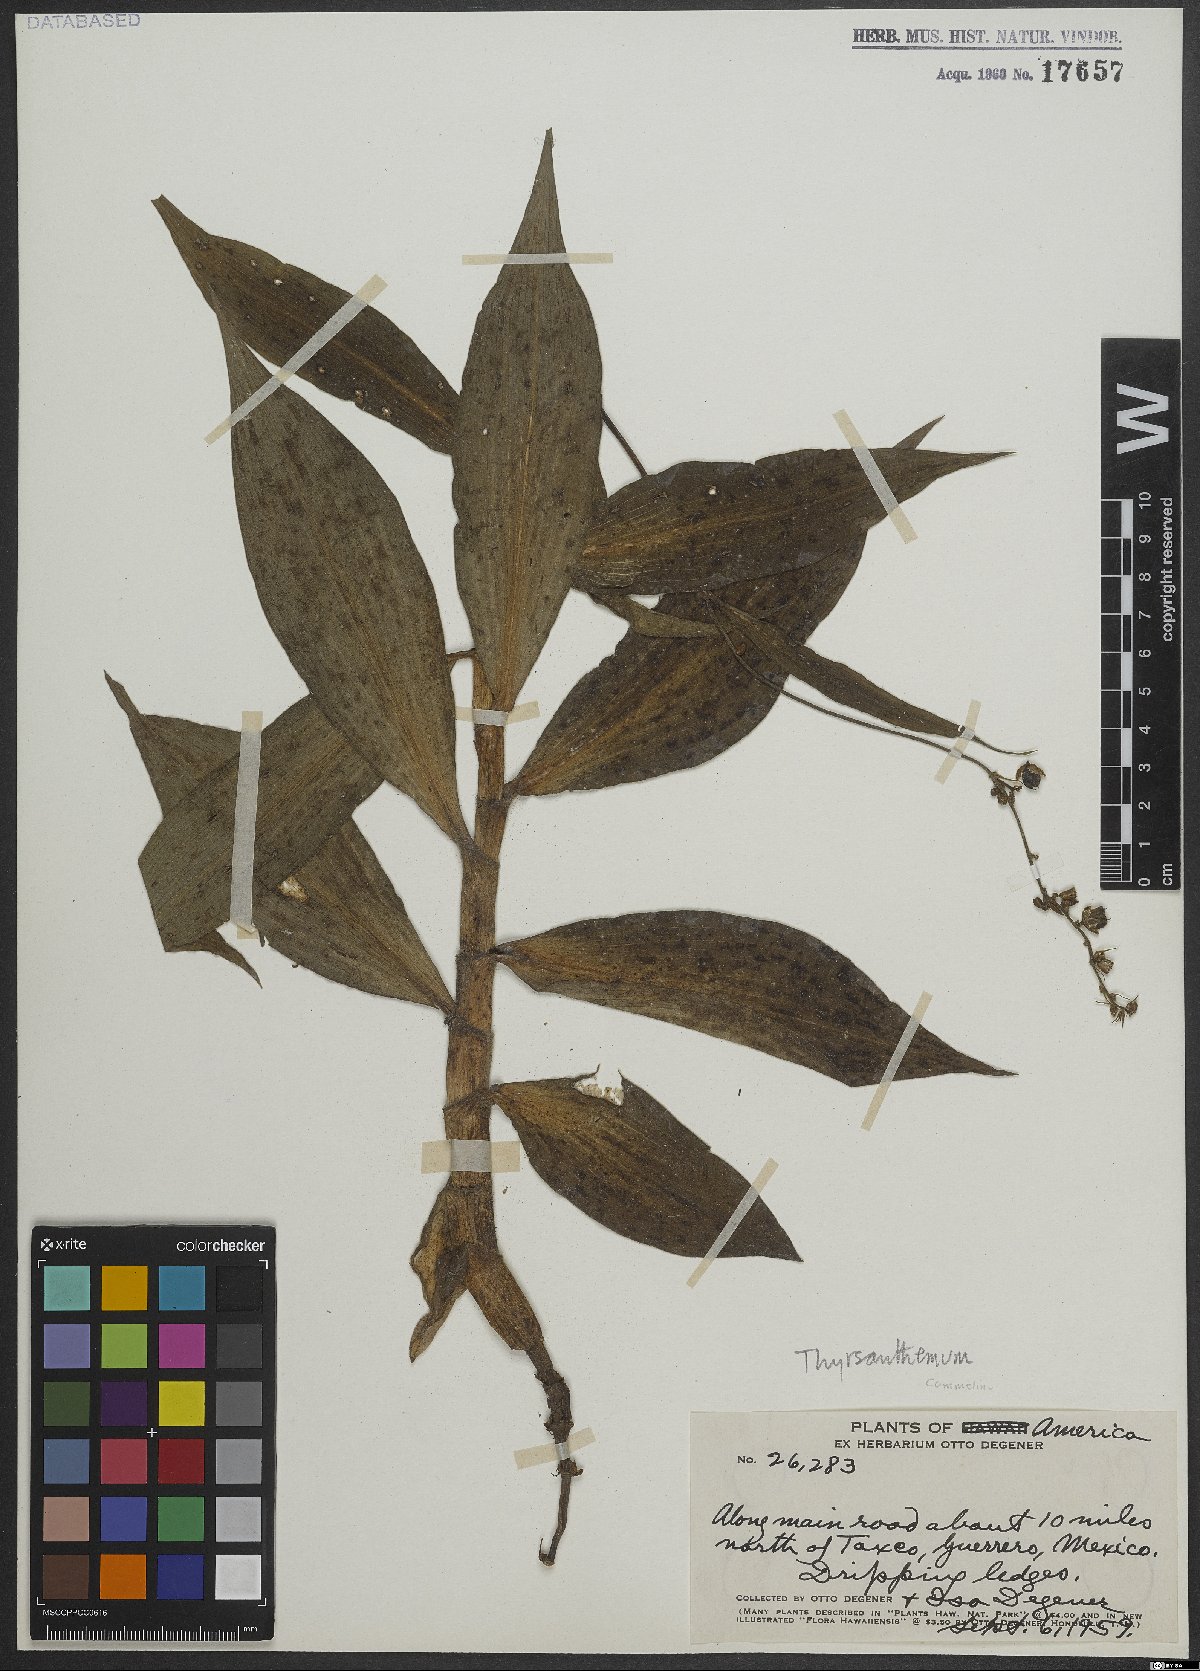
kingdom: Plantae
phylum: Tracheophyta
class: Liliopsida
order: Commelinales
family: Commelinaceae
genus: Thyrsanthemum
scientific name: Thyrsanthemum
